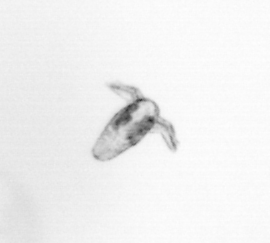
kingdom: Animalia
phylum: Arthropoda
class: Copepoda
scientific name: Copepoda
